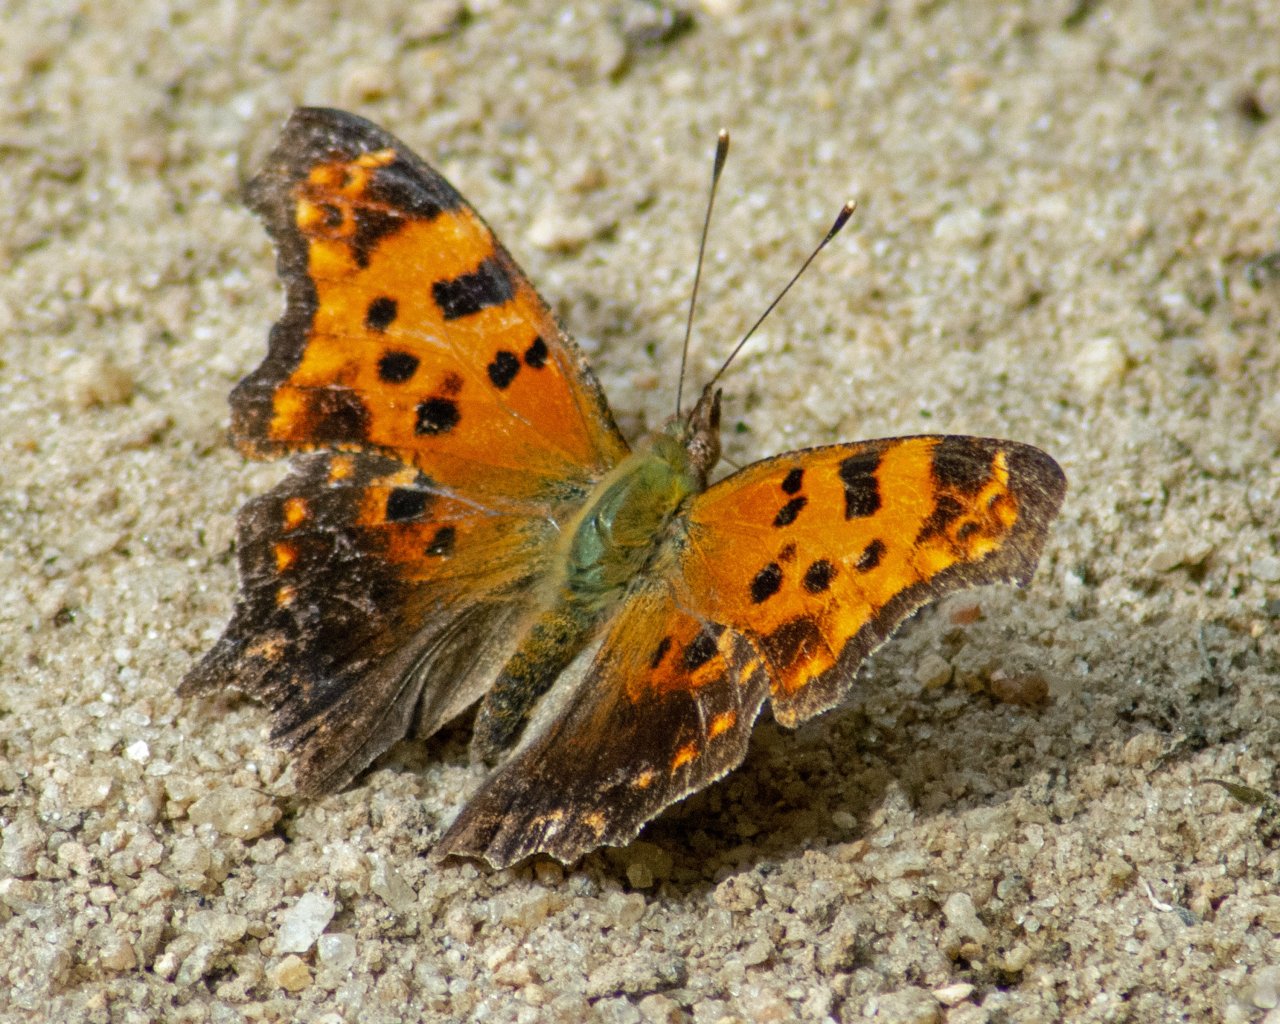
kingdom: Animalia
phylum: Arthropoda
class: Insecta
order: Lepidoptera
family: Nymphalidae
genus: Polygonia
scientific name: Polygonia comma
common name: Eastern Comma
